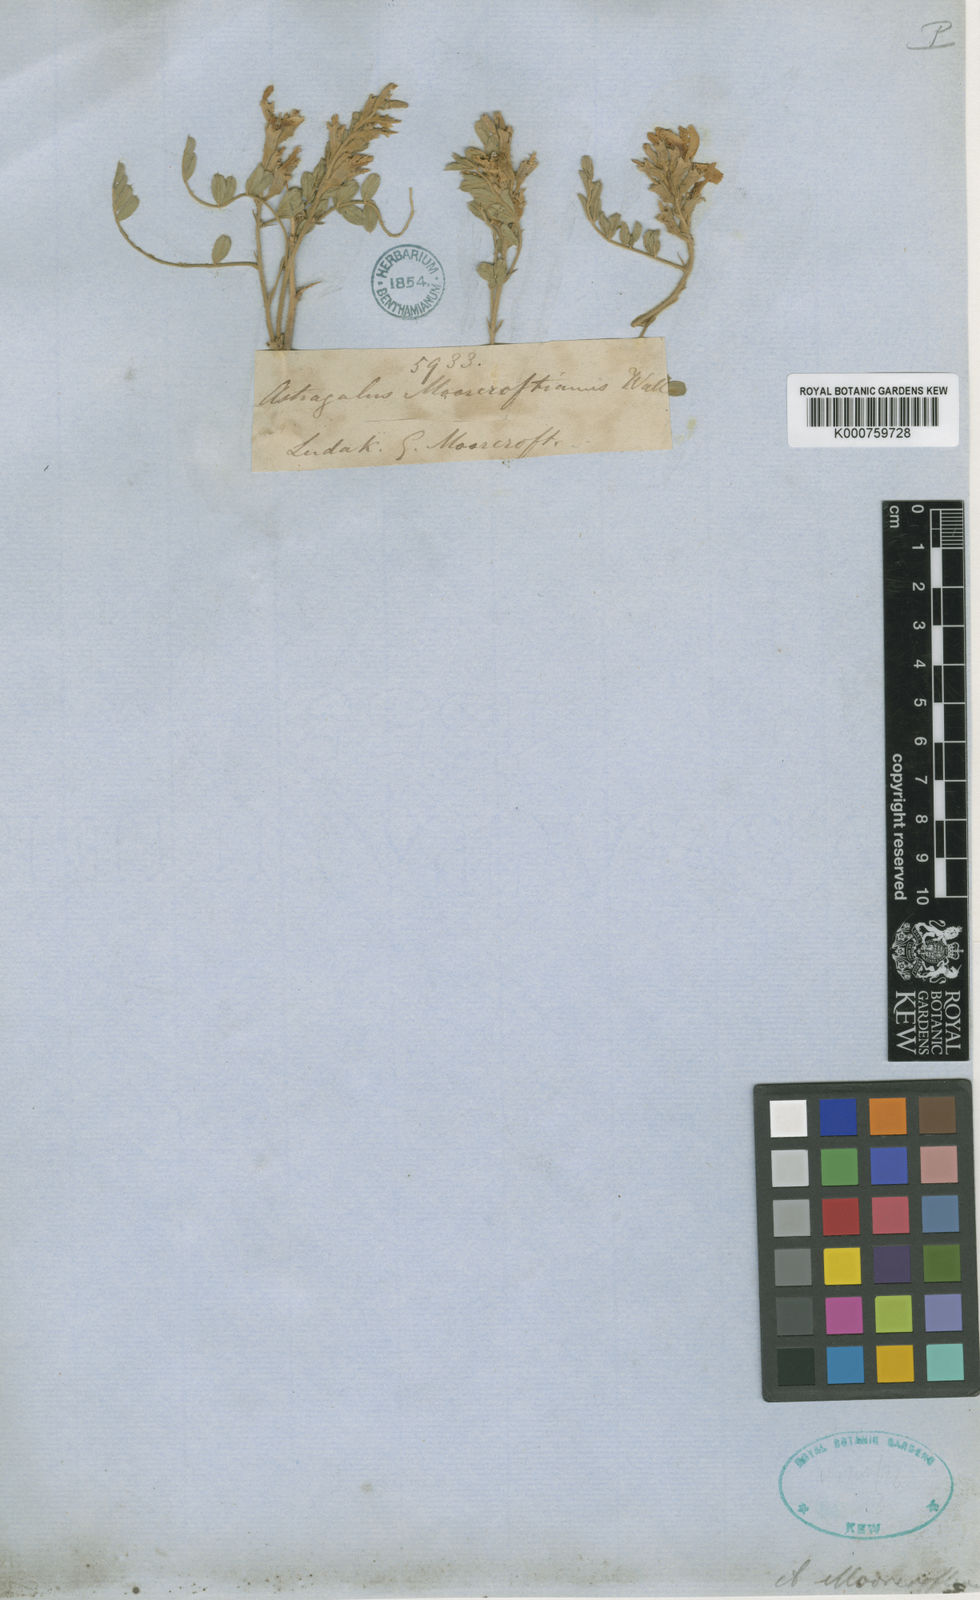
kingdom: Plantae
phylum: Tracheophyta
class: Magnoliopsida
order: Fabales
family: Fabaceae
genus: Sophora
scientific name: Sophora
